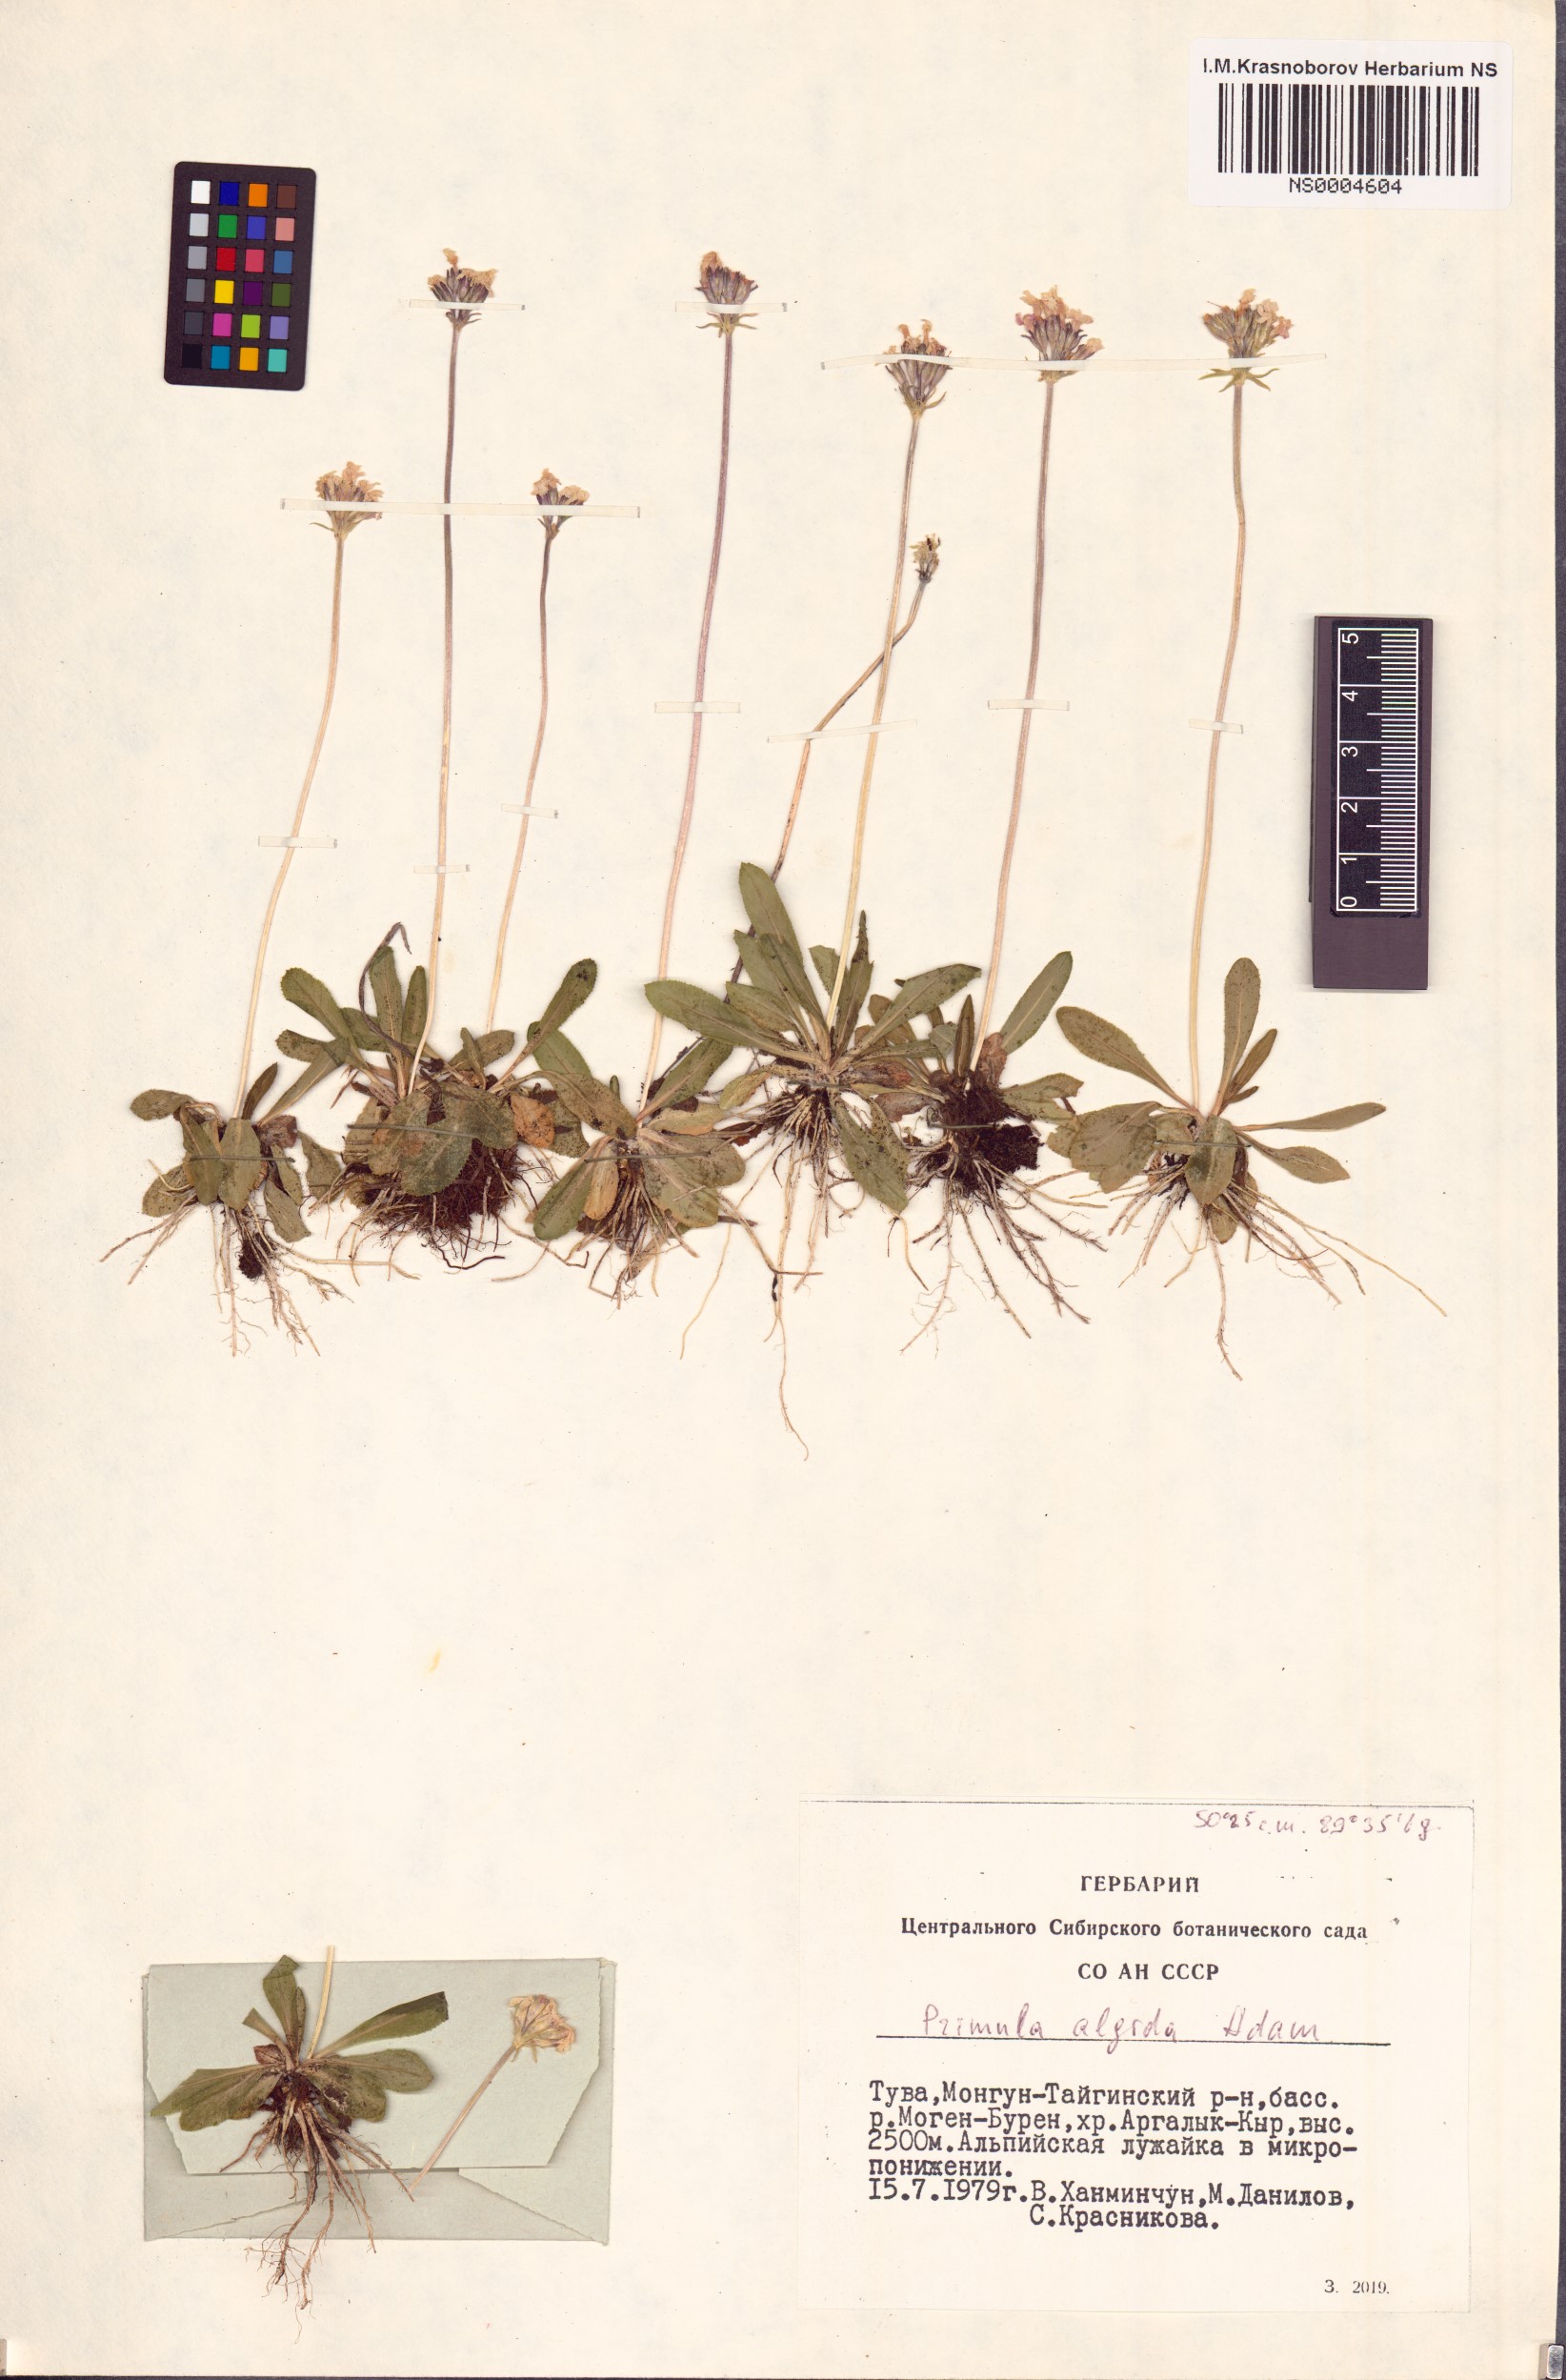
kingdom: Plantae
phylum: Tracheophyta
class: Magnoliopsida
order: Ericales
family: Primulaceae
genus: Primula
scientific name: Primula algida
